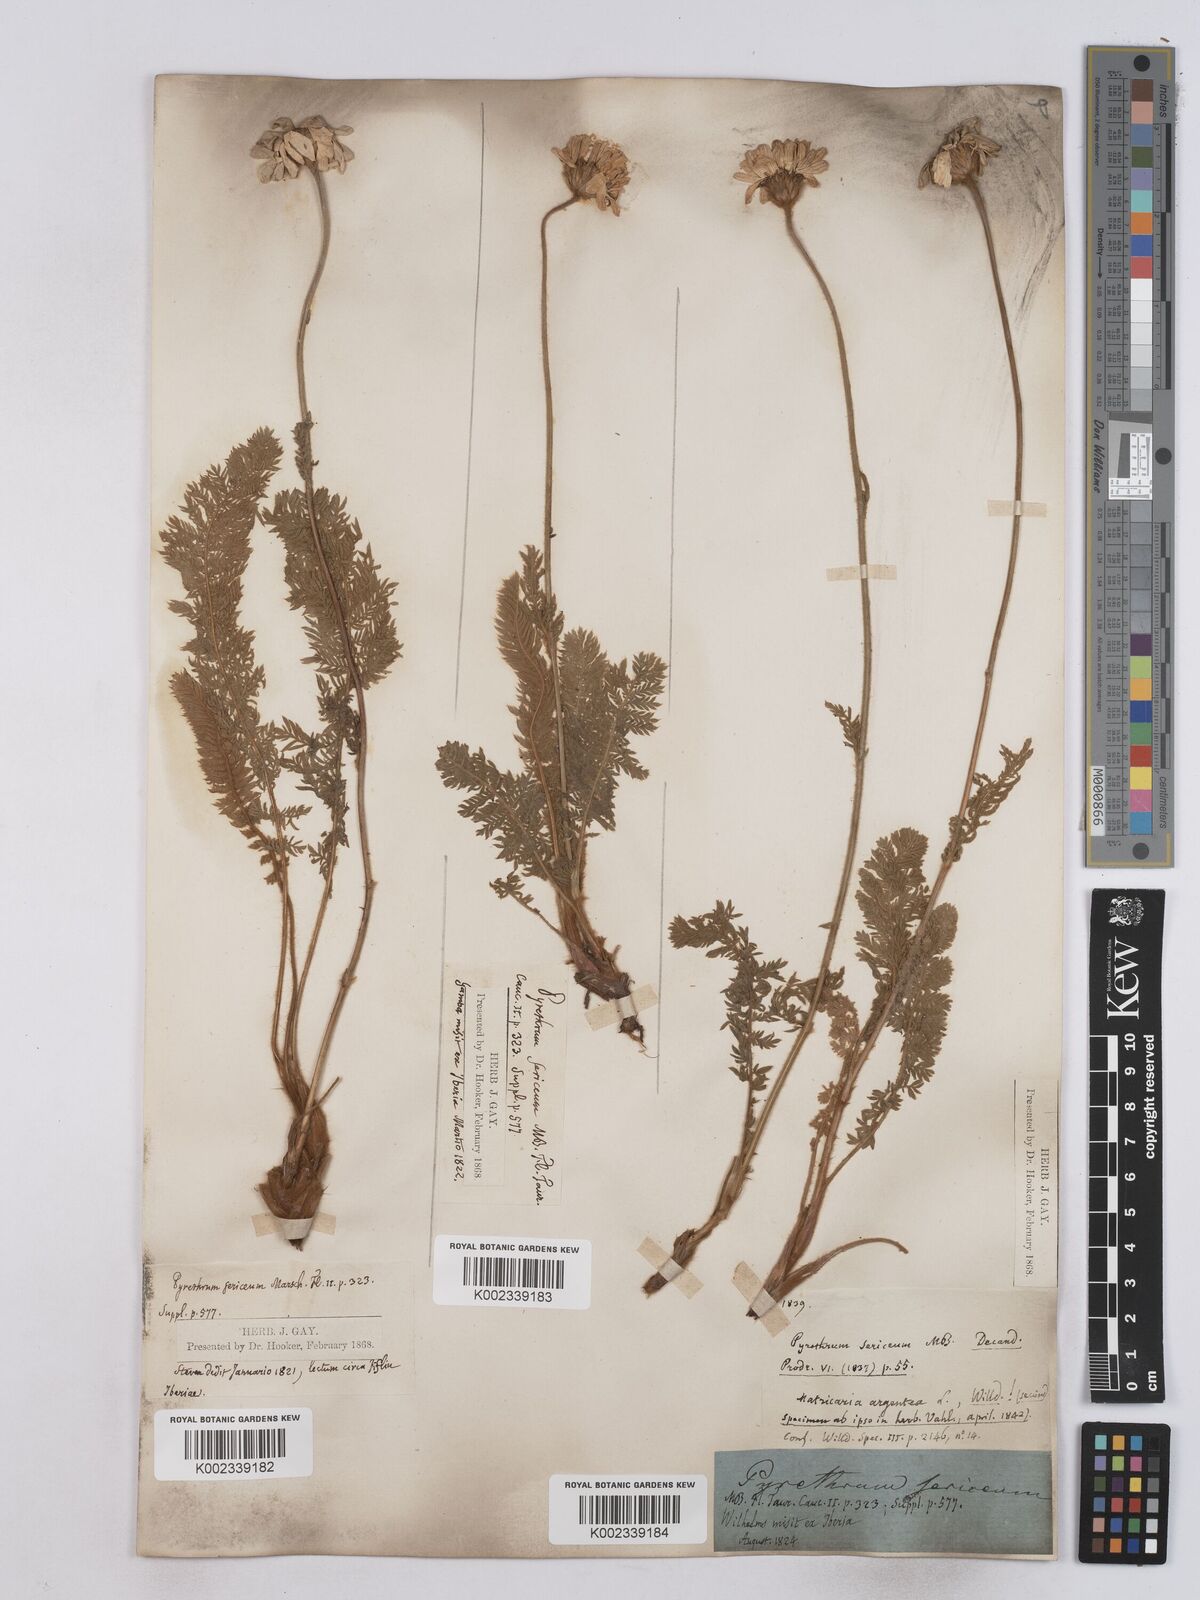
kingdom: Plantae
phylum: Tracheophyta
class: Magnoliopsida
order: Asterales
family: Asteraceae
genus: Tanacetum
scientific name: Tanacetum sericeum
